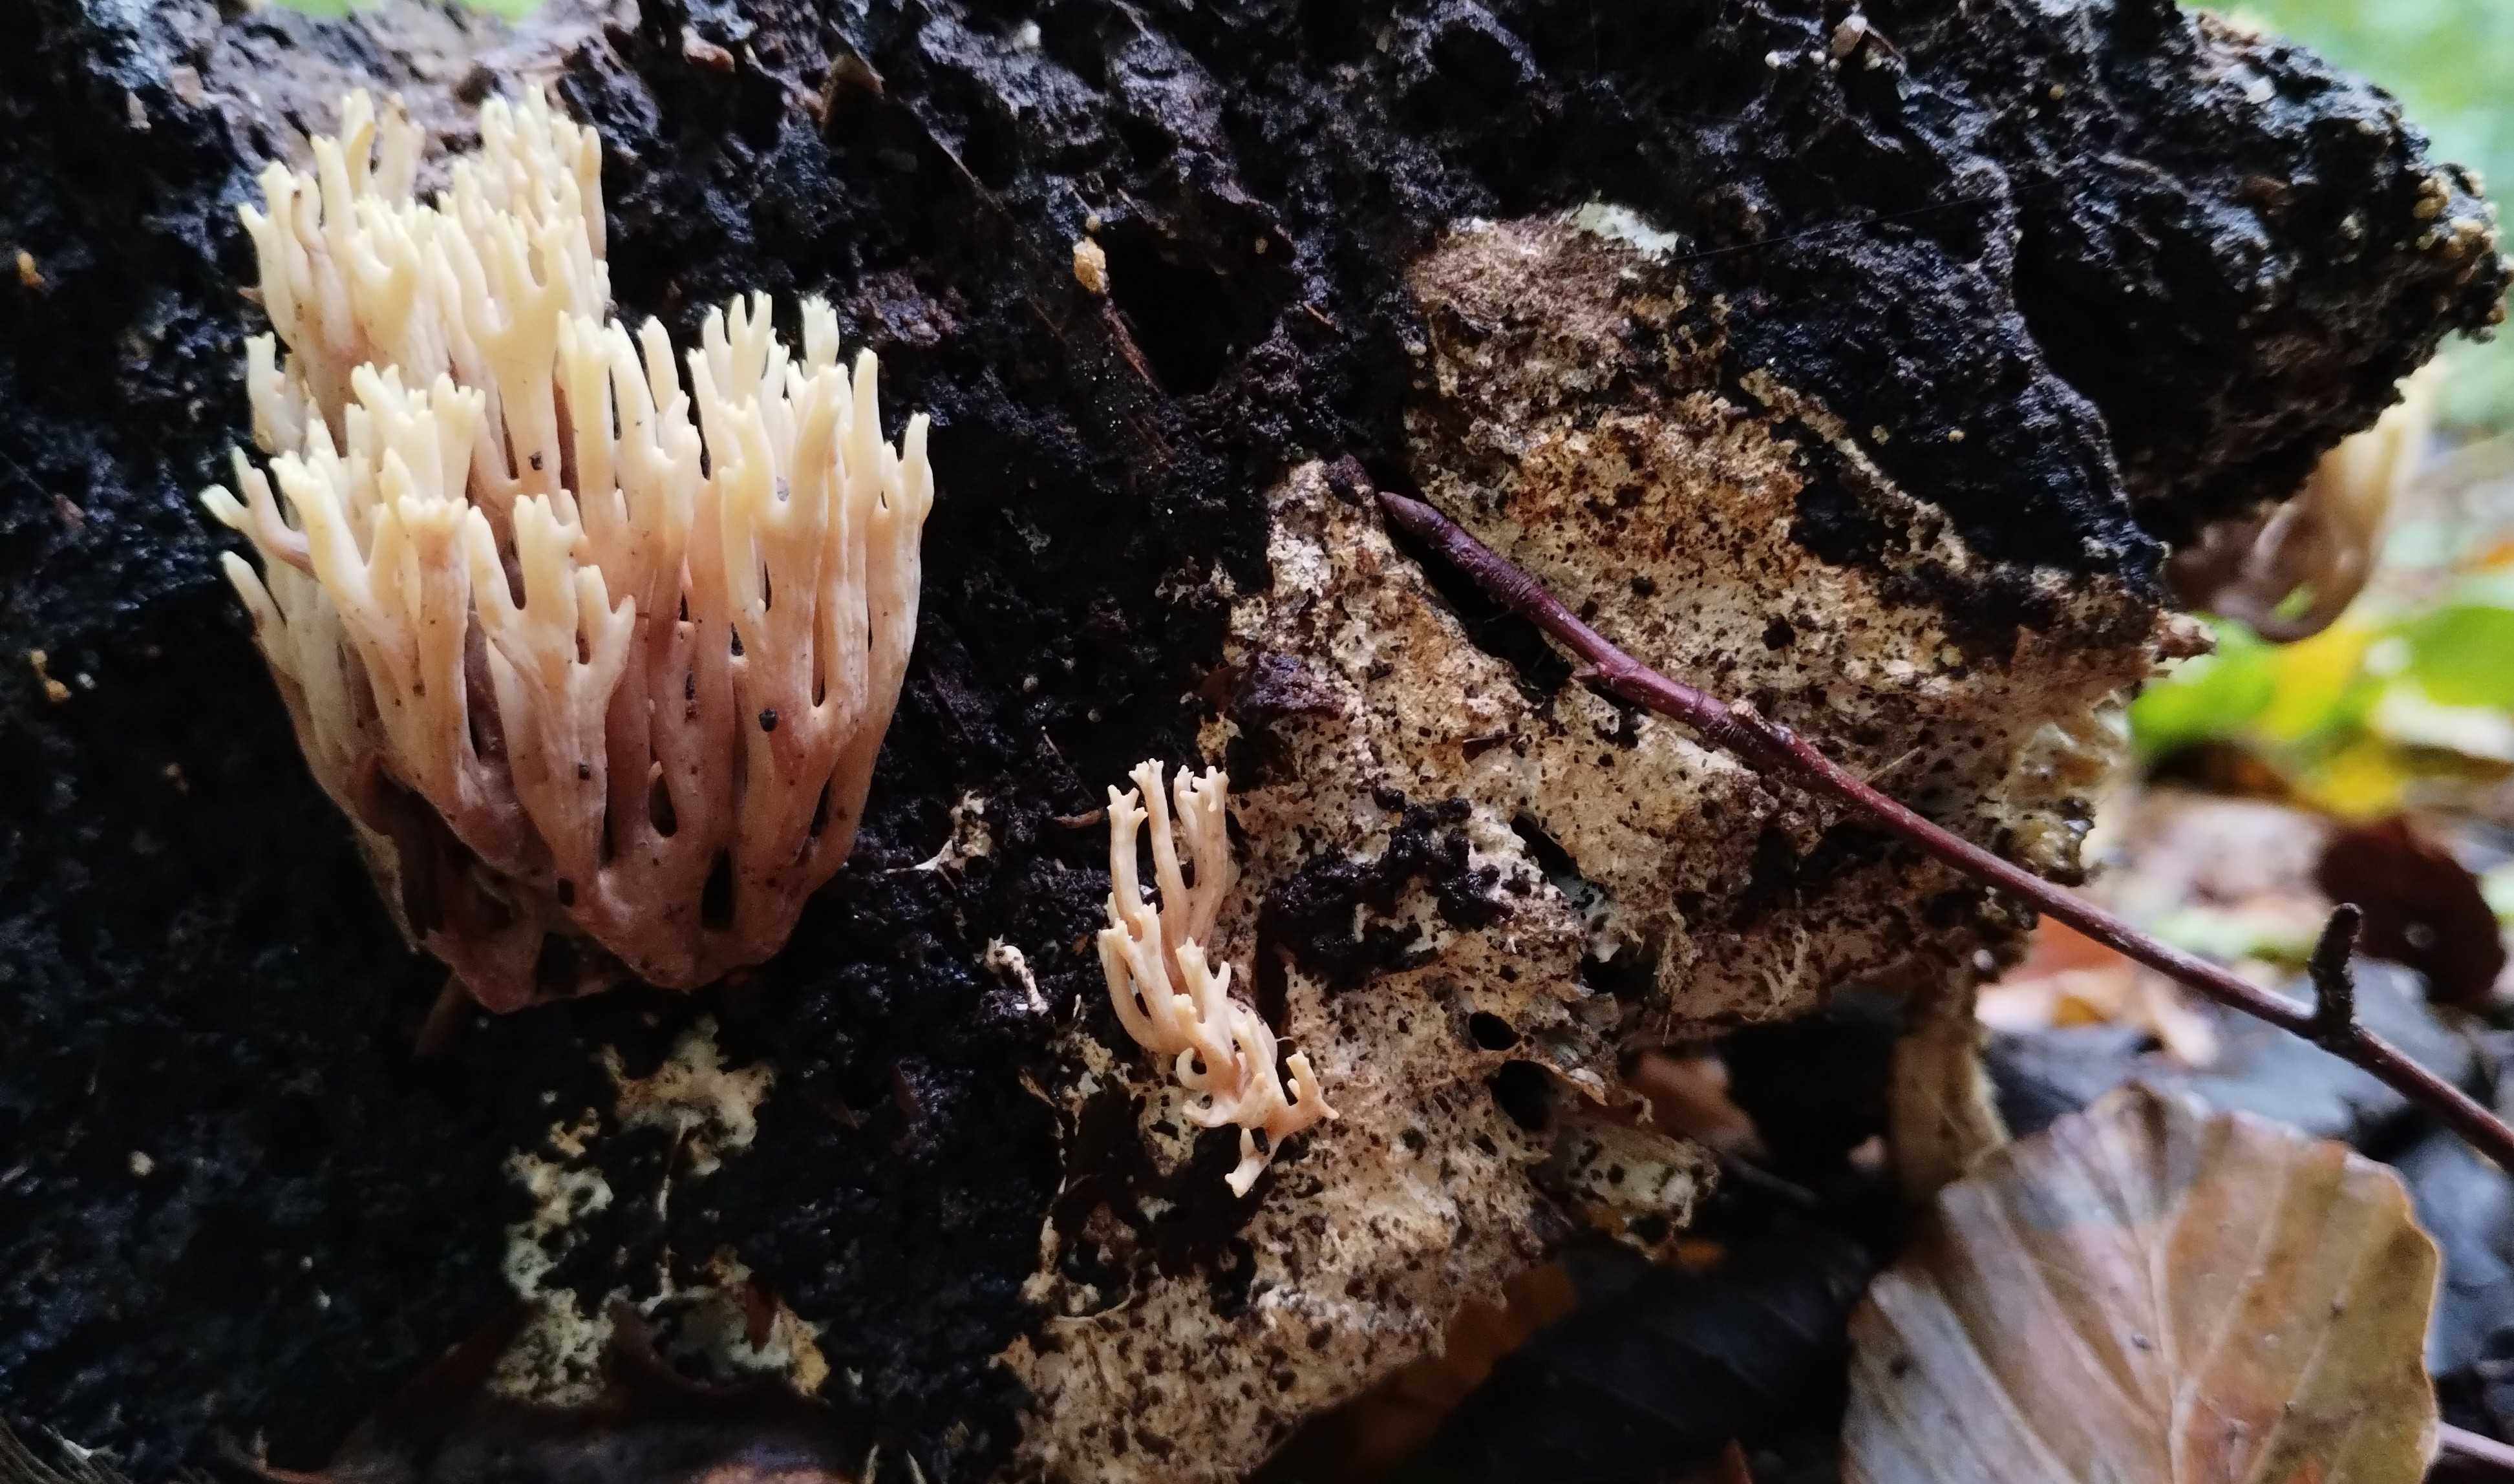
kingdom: Fungi
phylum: Basidiomycota
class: Agaricomycetes
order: Gomphales
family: Gomphaceae
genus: Ramaria
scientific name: Ramaria stricta
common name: rank koralsvamp
